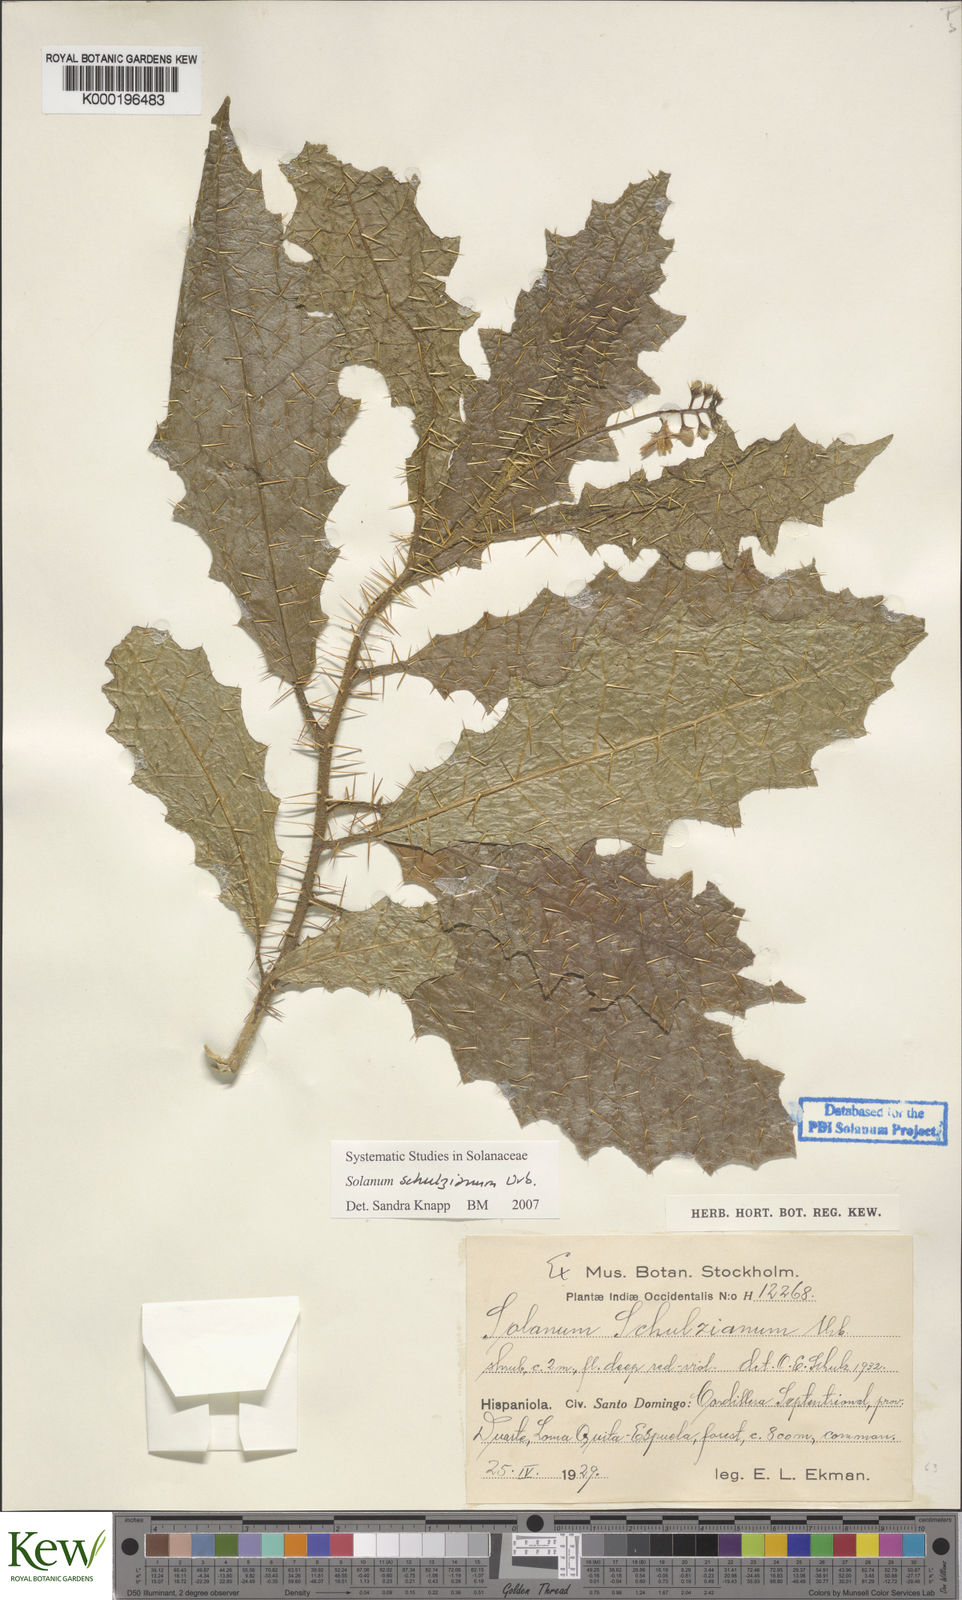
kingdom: Plantae
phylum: Tracheophyta
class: Magnoliopsida
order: Solanales
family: Solanaceae
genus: Solanum
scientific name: Solanum schulzianum
